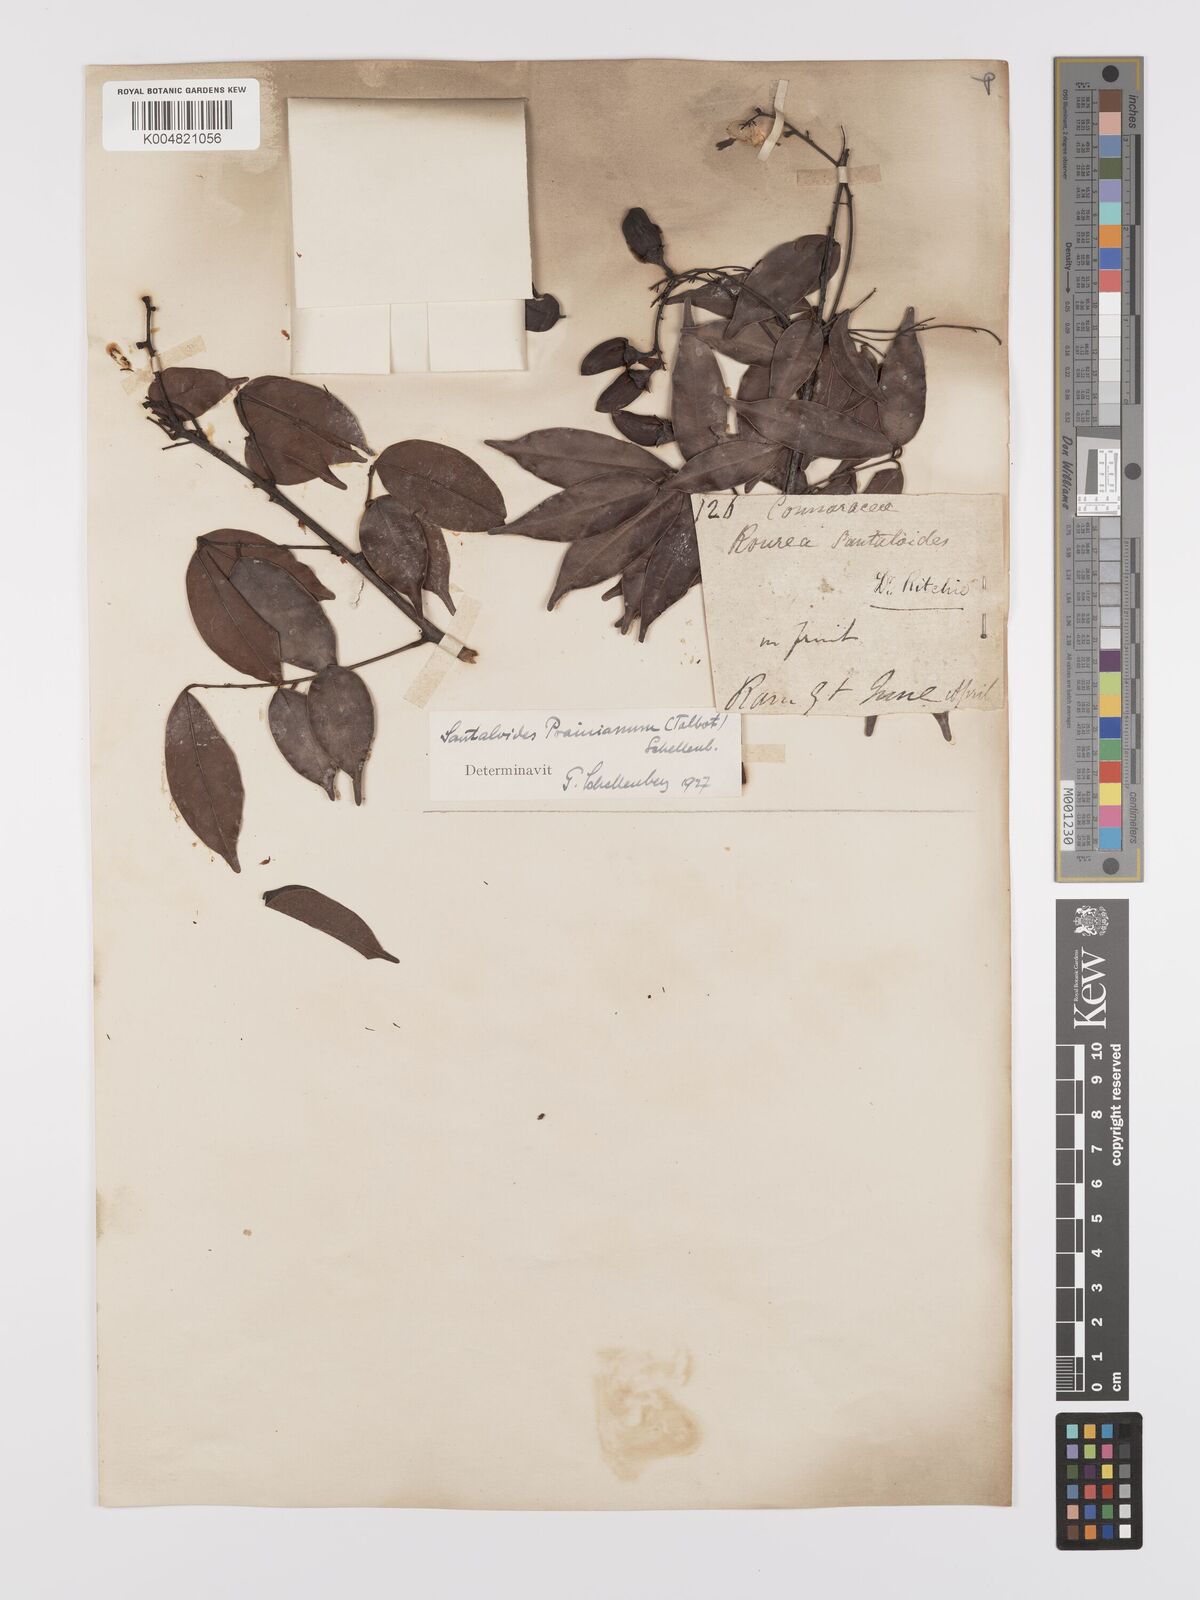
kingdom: Plantae
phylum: Tracheophyta
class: Magnoliopsida
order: Oxalidales
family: Connaraceae
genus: Rourea
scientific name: Rourea prainiana
